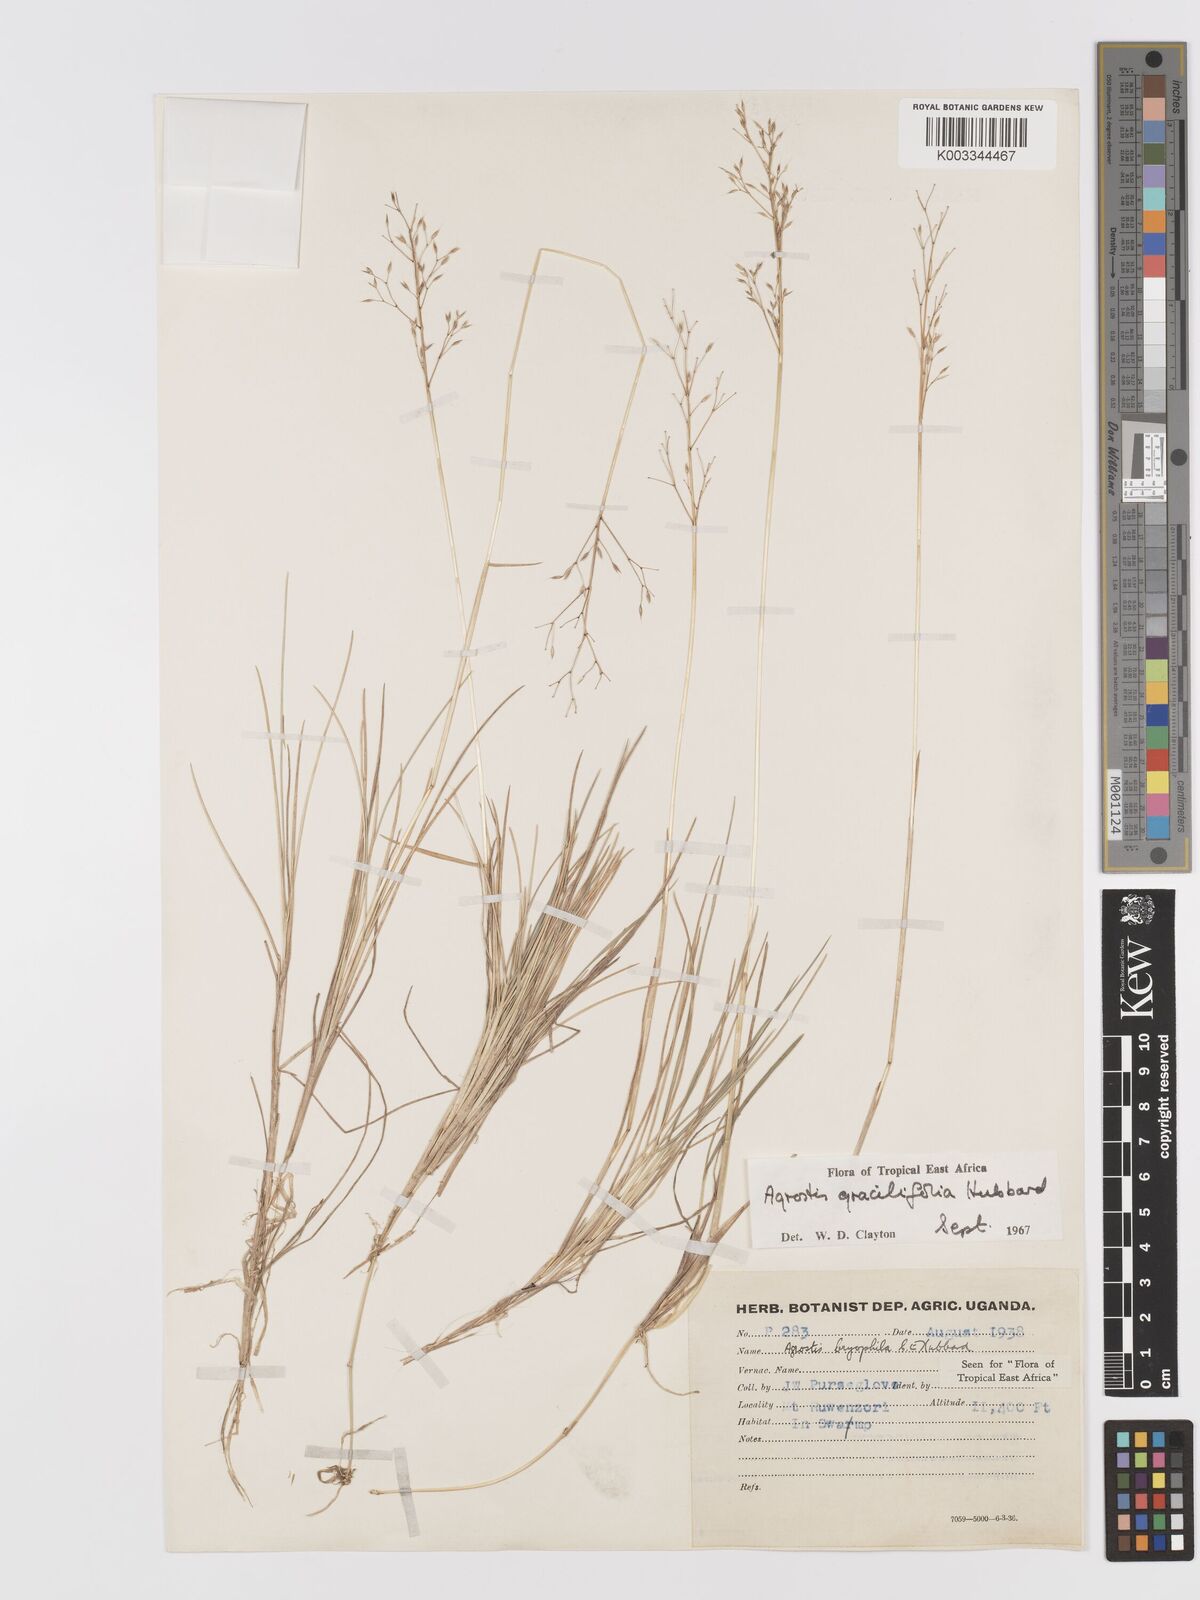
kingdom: Plantae
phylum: Tracheophyta
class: Liliopsida
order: Poales
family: Poaceae
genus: Agrostis
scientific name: Agrostis gracilifolia
